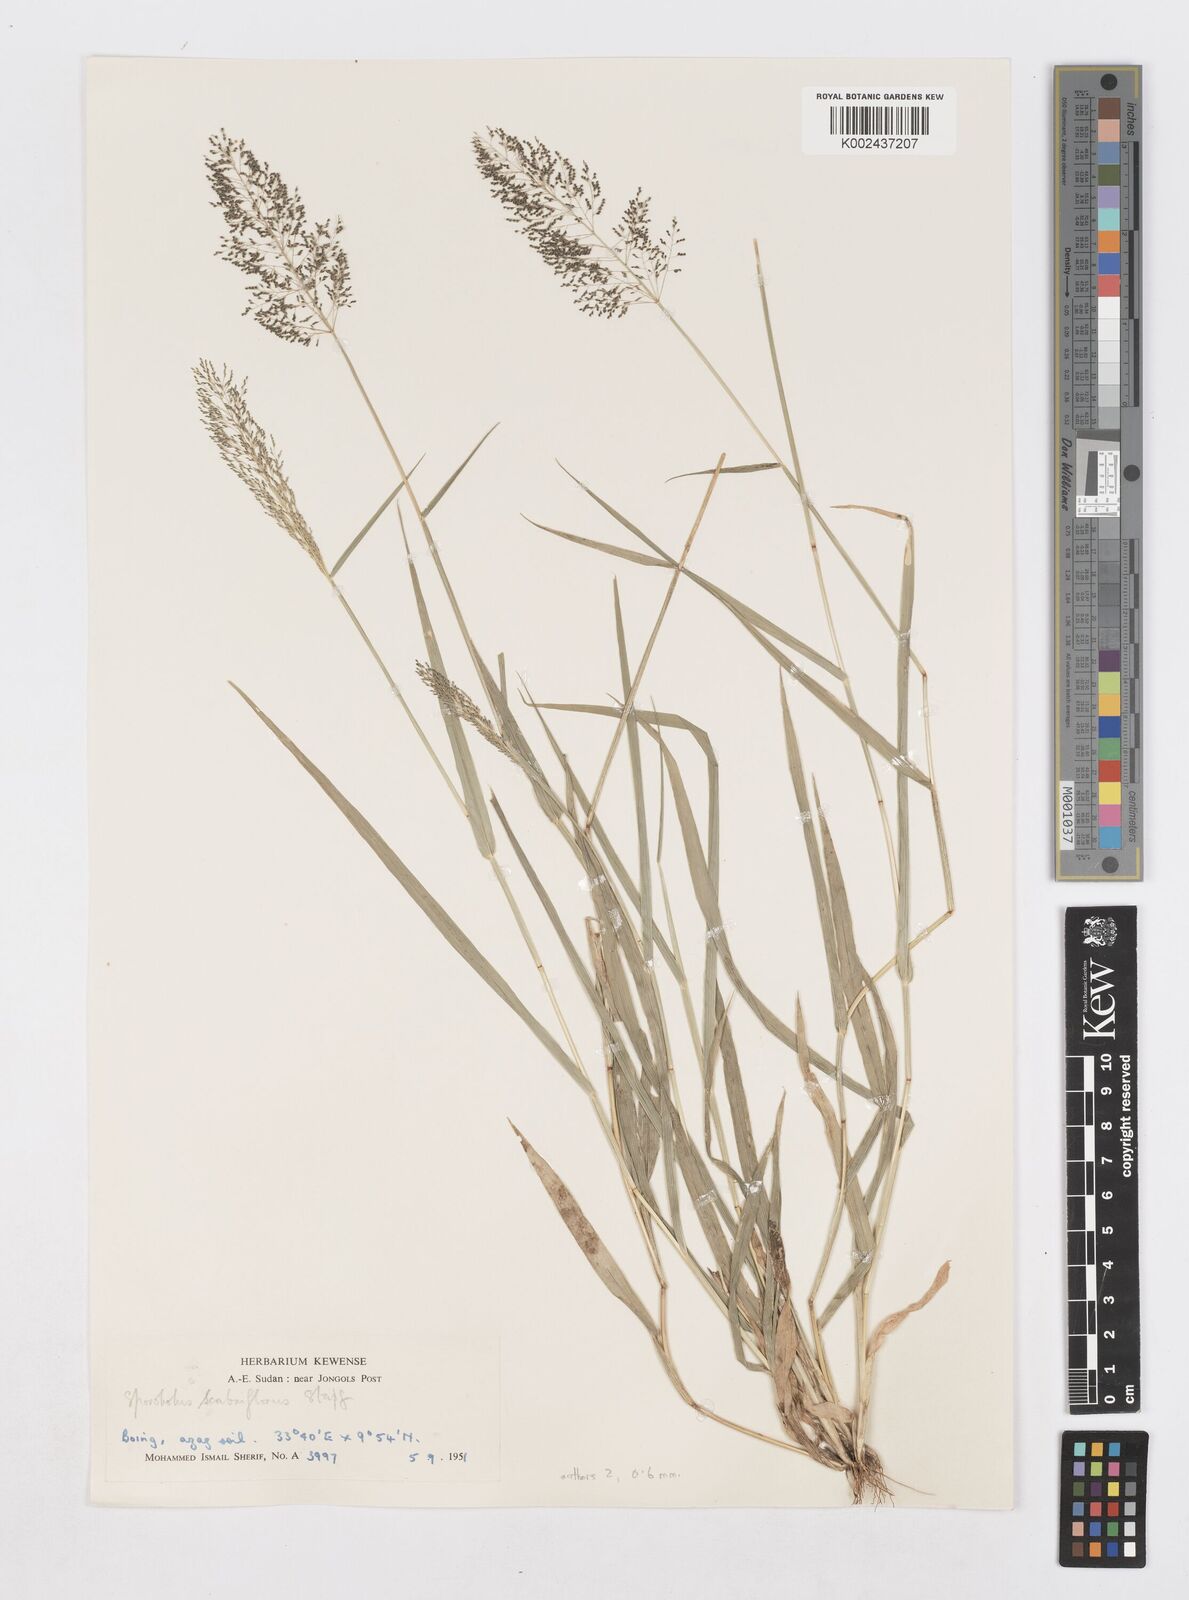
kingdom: Plantae
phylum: Tracheophyta
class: Liliopsida
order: Poales
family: Poaceae
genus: Sporobolus
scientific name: Sporobolus microprotus
